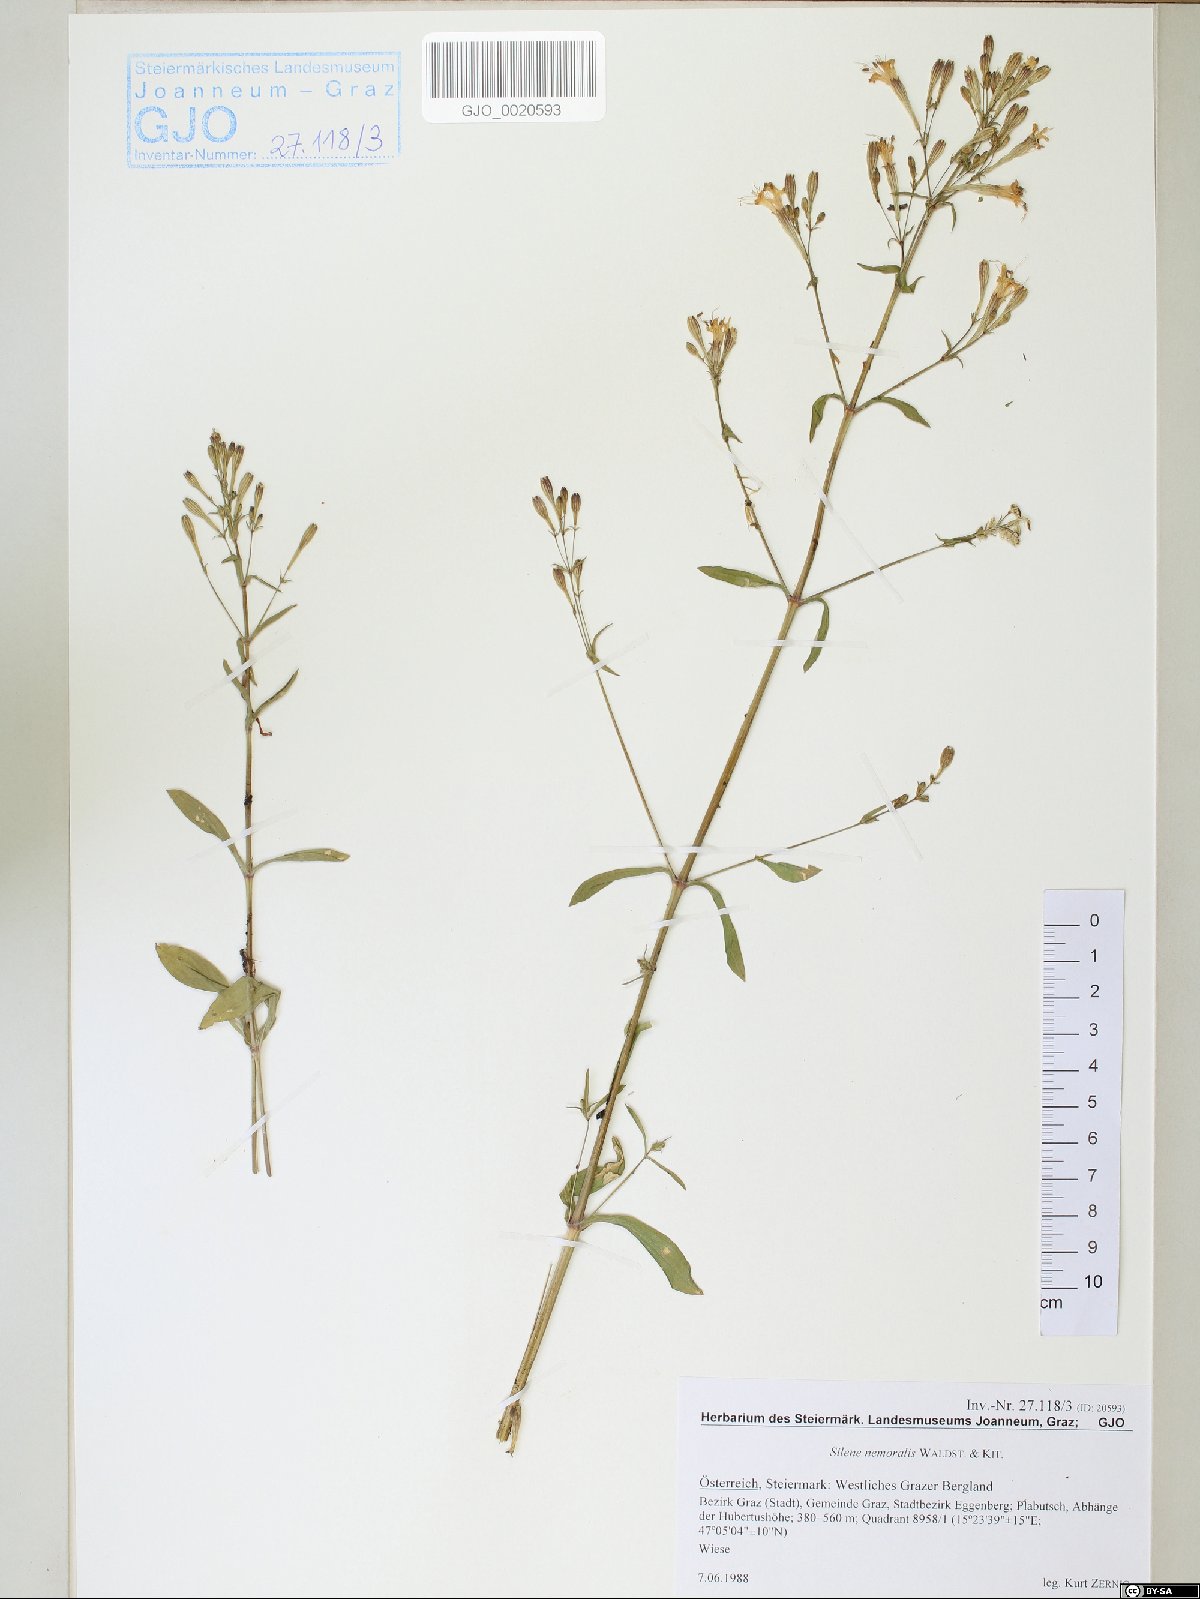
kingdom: Plantae
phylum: Tracheophyta
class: Magnoliopsida
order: Caryophyllales
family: Caryophyllaceae
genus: Silene
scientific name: Silene nemoralis
